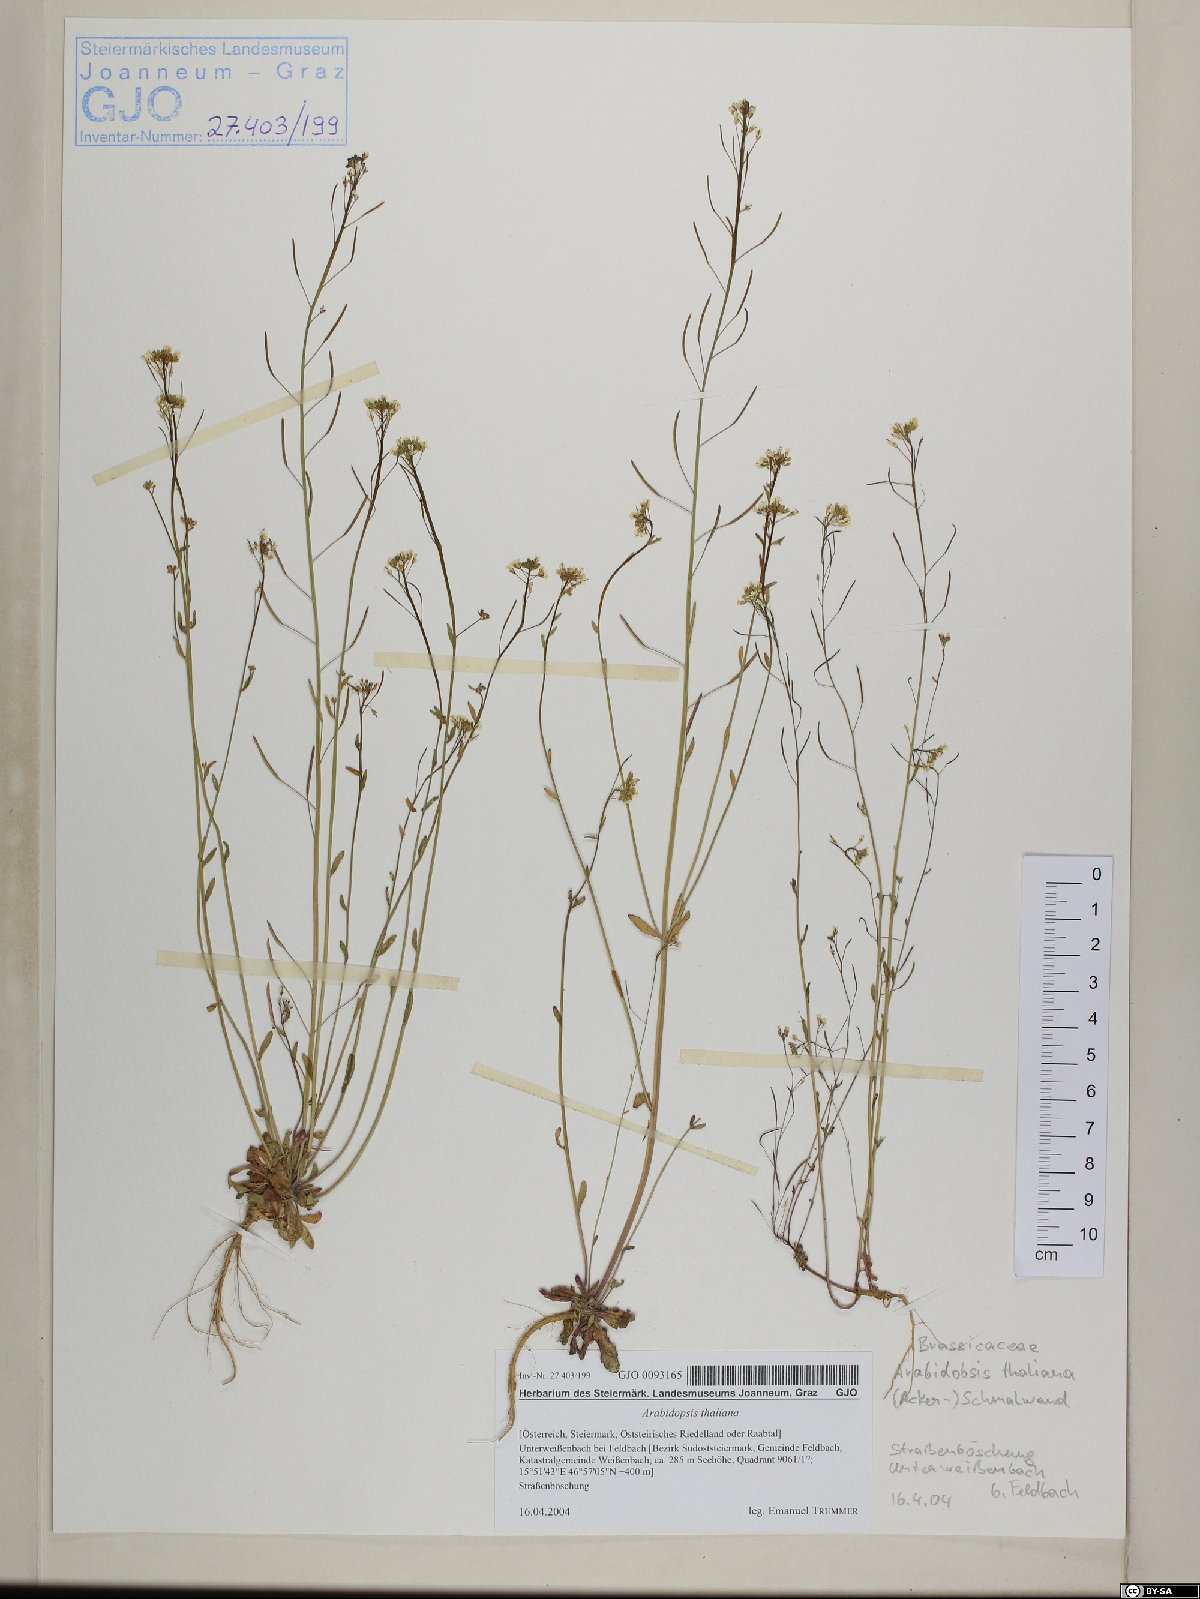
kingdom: Plantae
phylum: Tracheophyta
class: Magnoliopsida
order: Brassicales
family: Brassicaceae
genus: Arabidopsis
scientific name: Arabidopsis thaliana
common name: Thale cress
